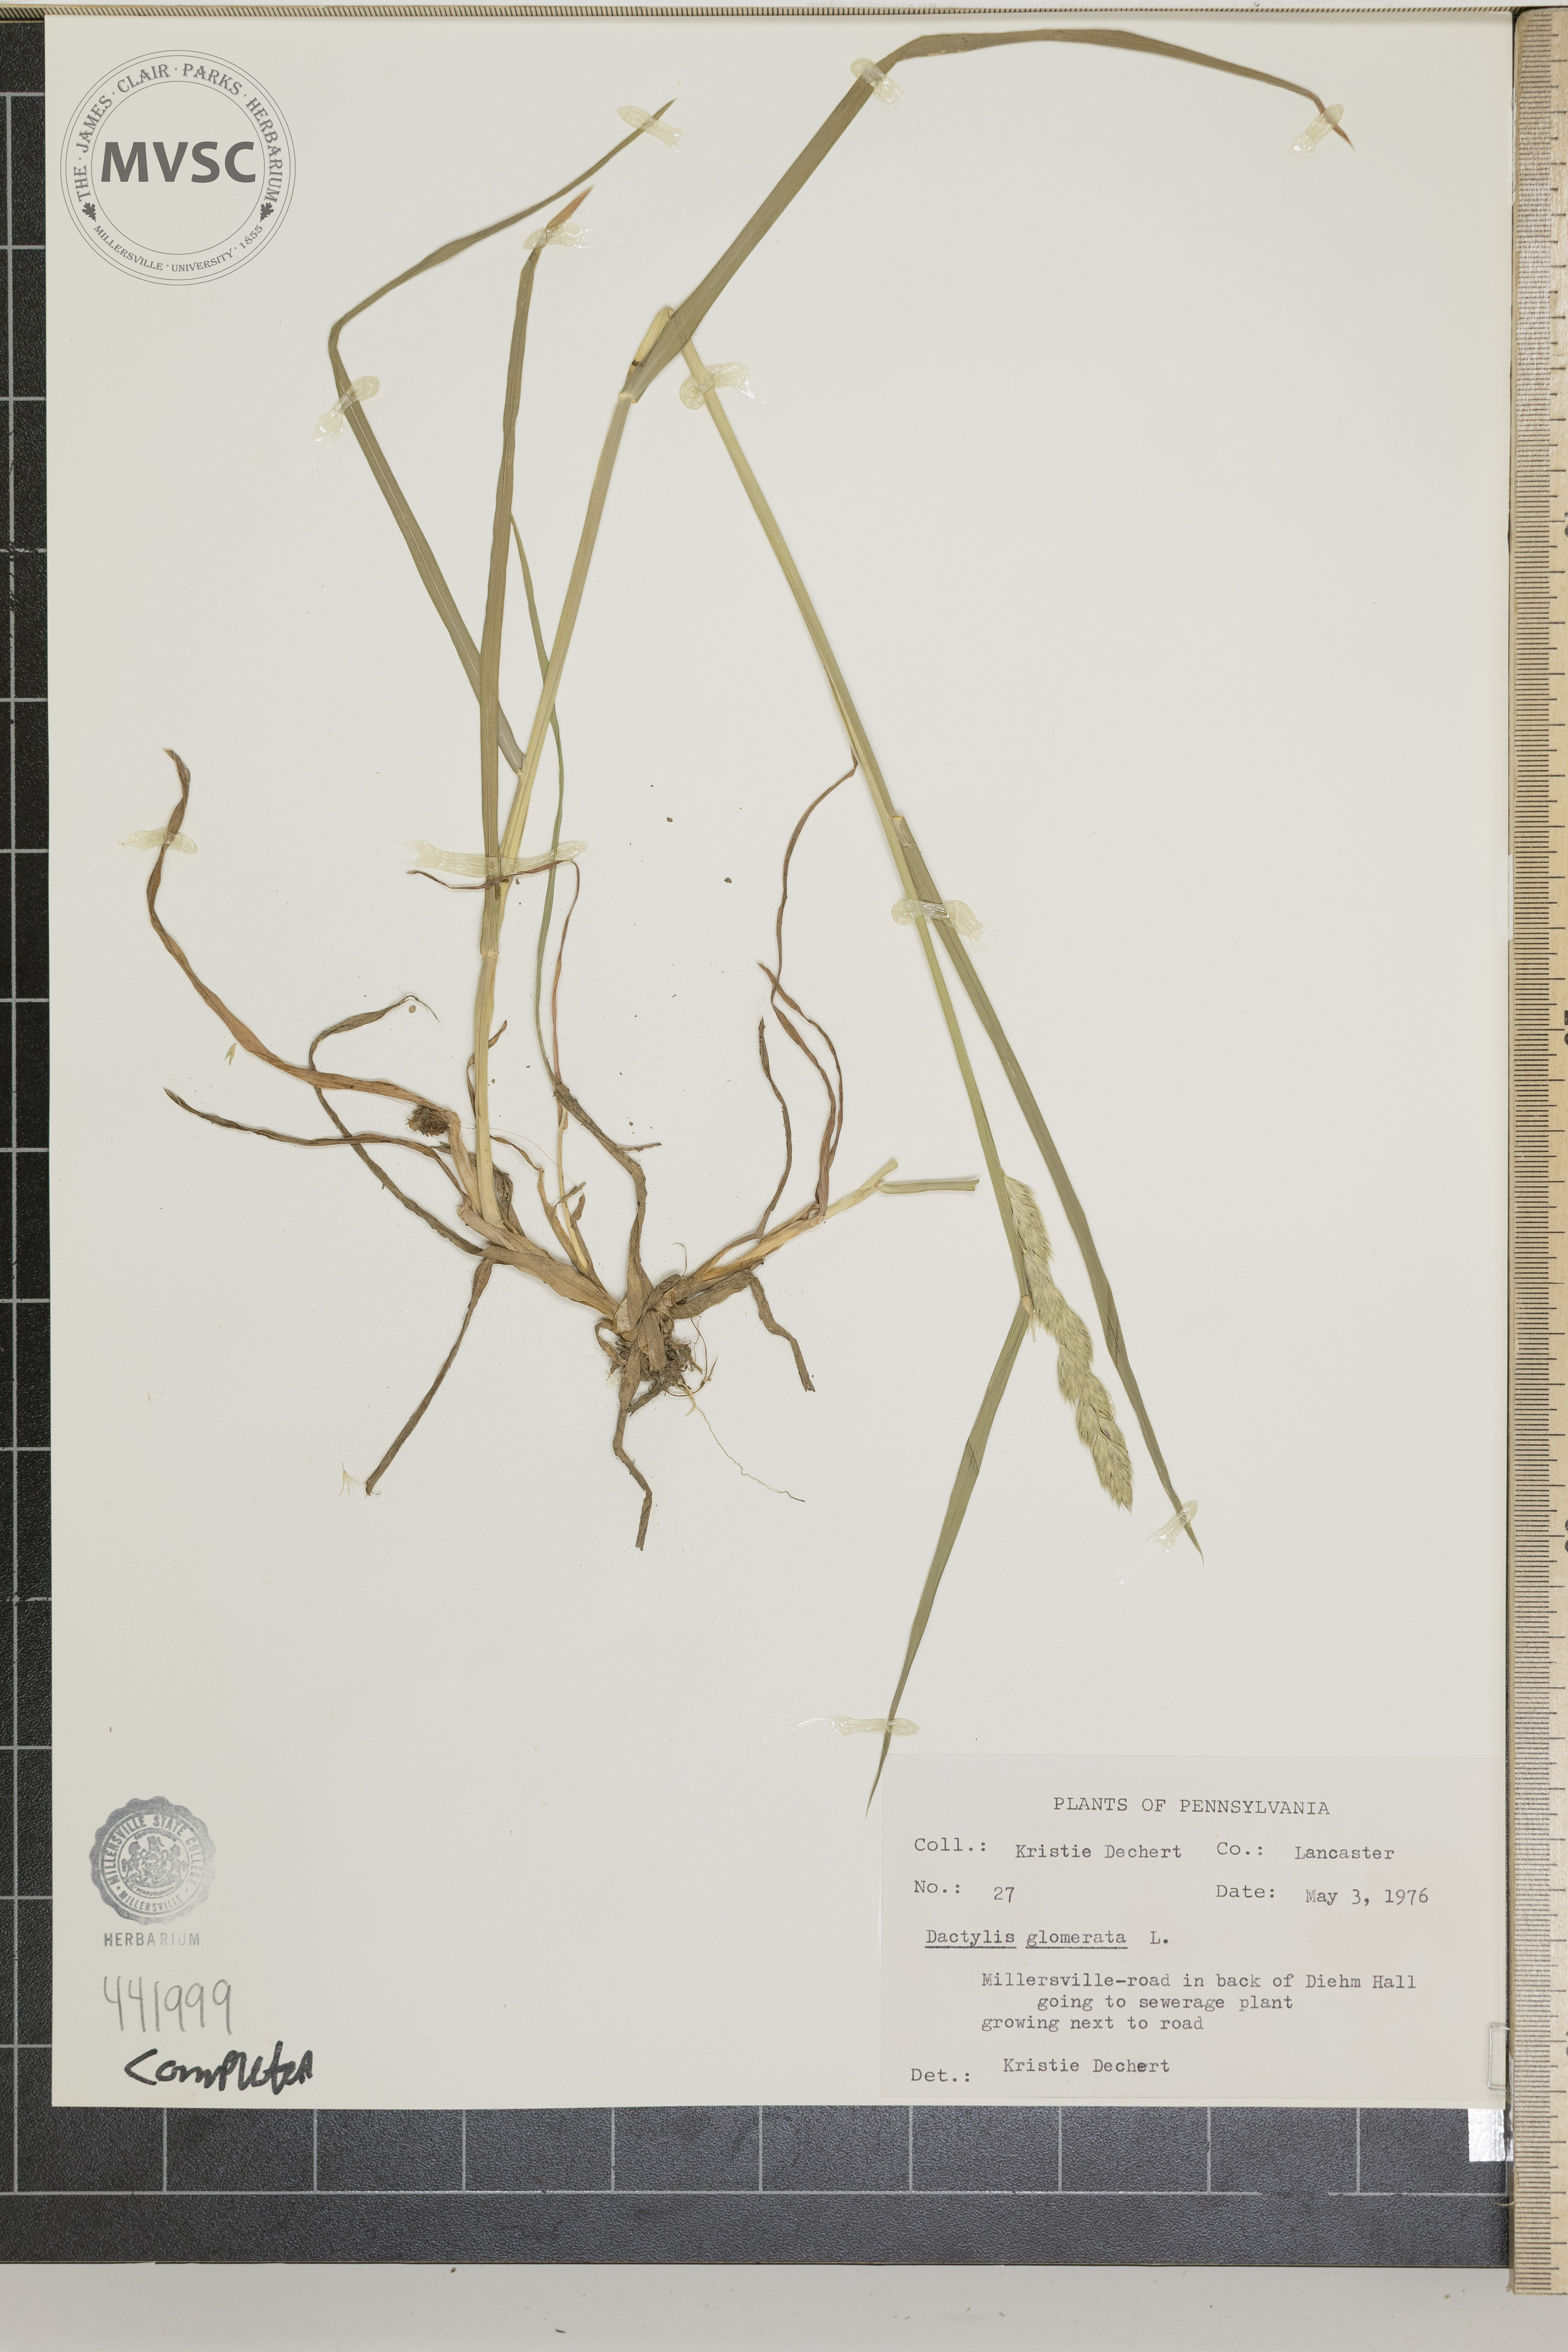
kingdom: Plantae
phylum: Tracheophyta
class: Liliopsida
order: Poales
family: Poaceae
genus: Dactylis
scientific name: Dactylis glomerata
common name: Orchardgrass
